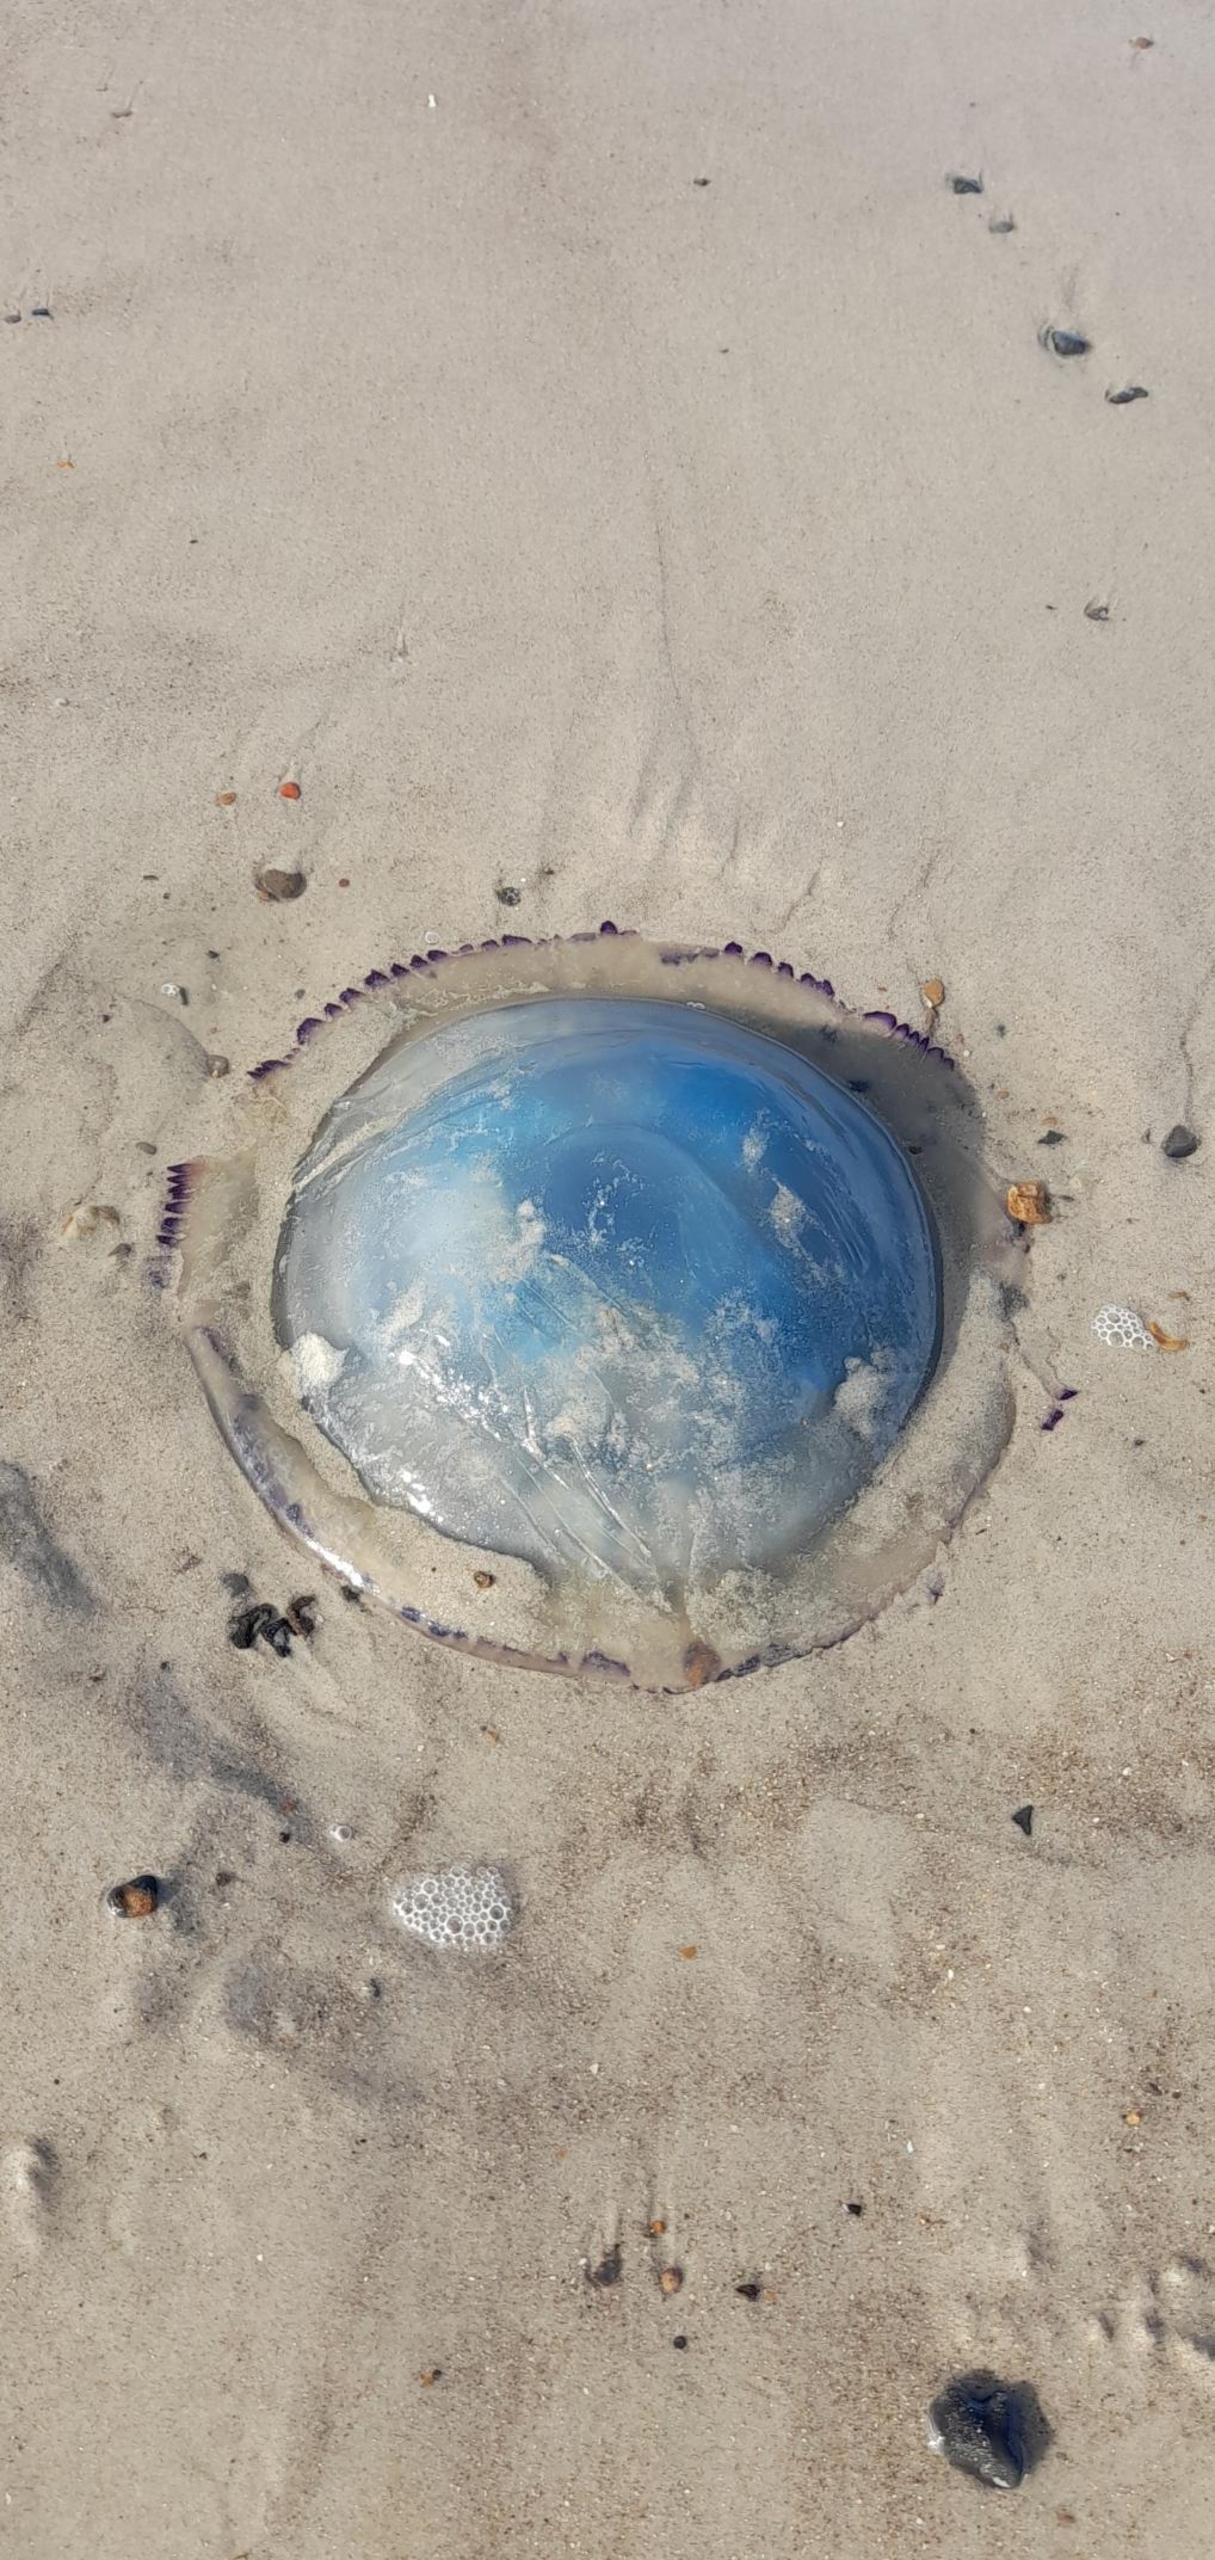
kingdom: Animalia
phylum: Cnidaria
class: Scyphozoa
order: Rhizostomeae
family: Rhizostomatidae
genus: Rhizostoma
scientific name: Rhizostoma pulmo
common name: Lungegople
